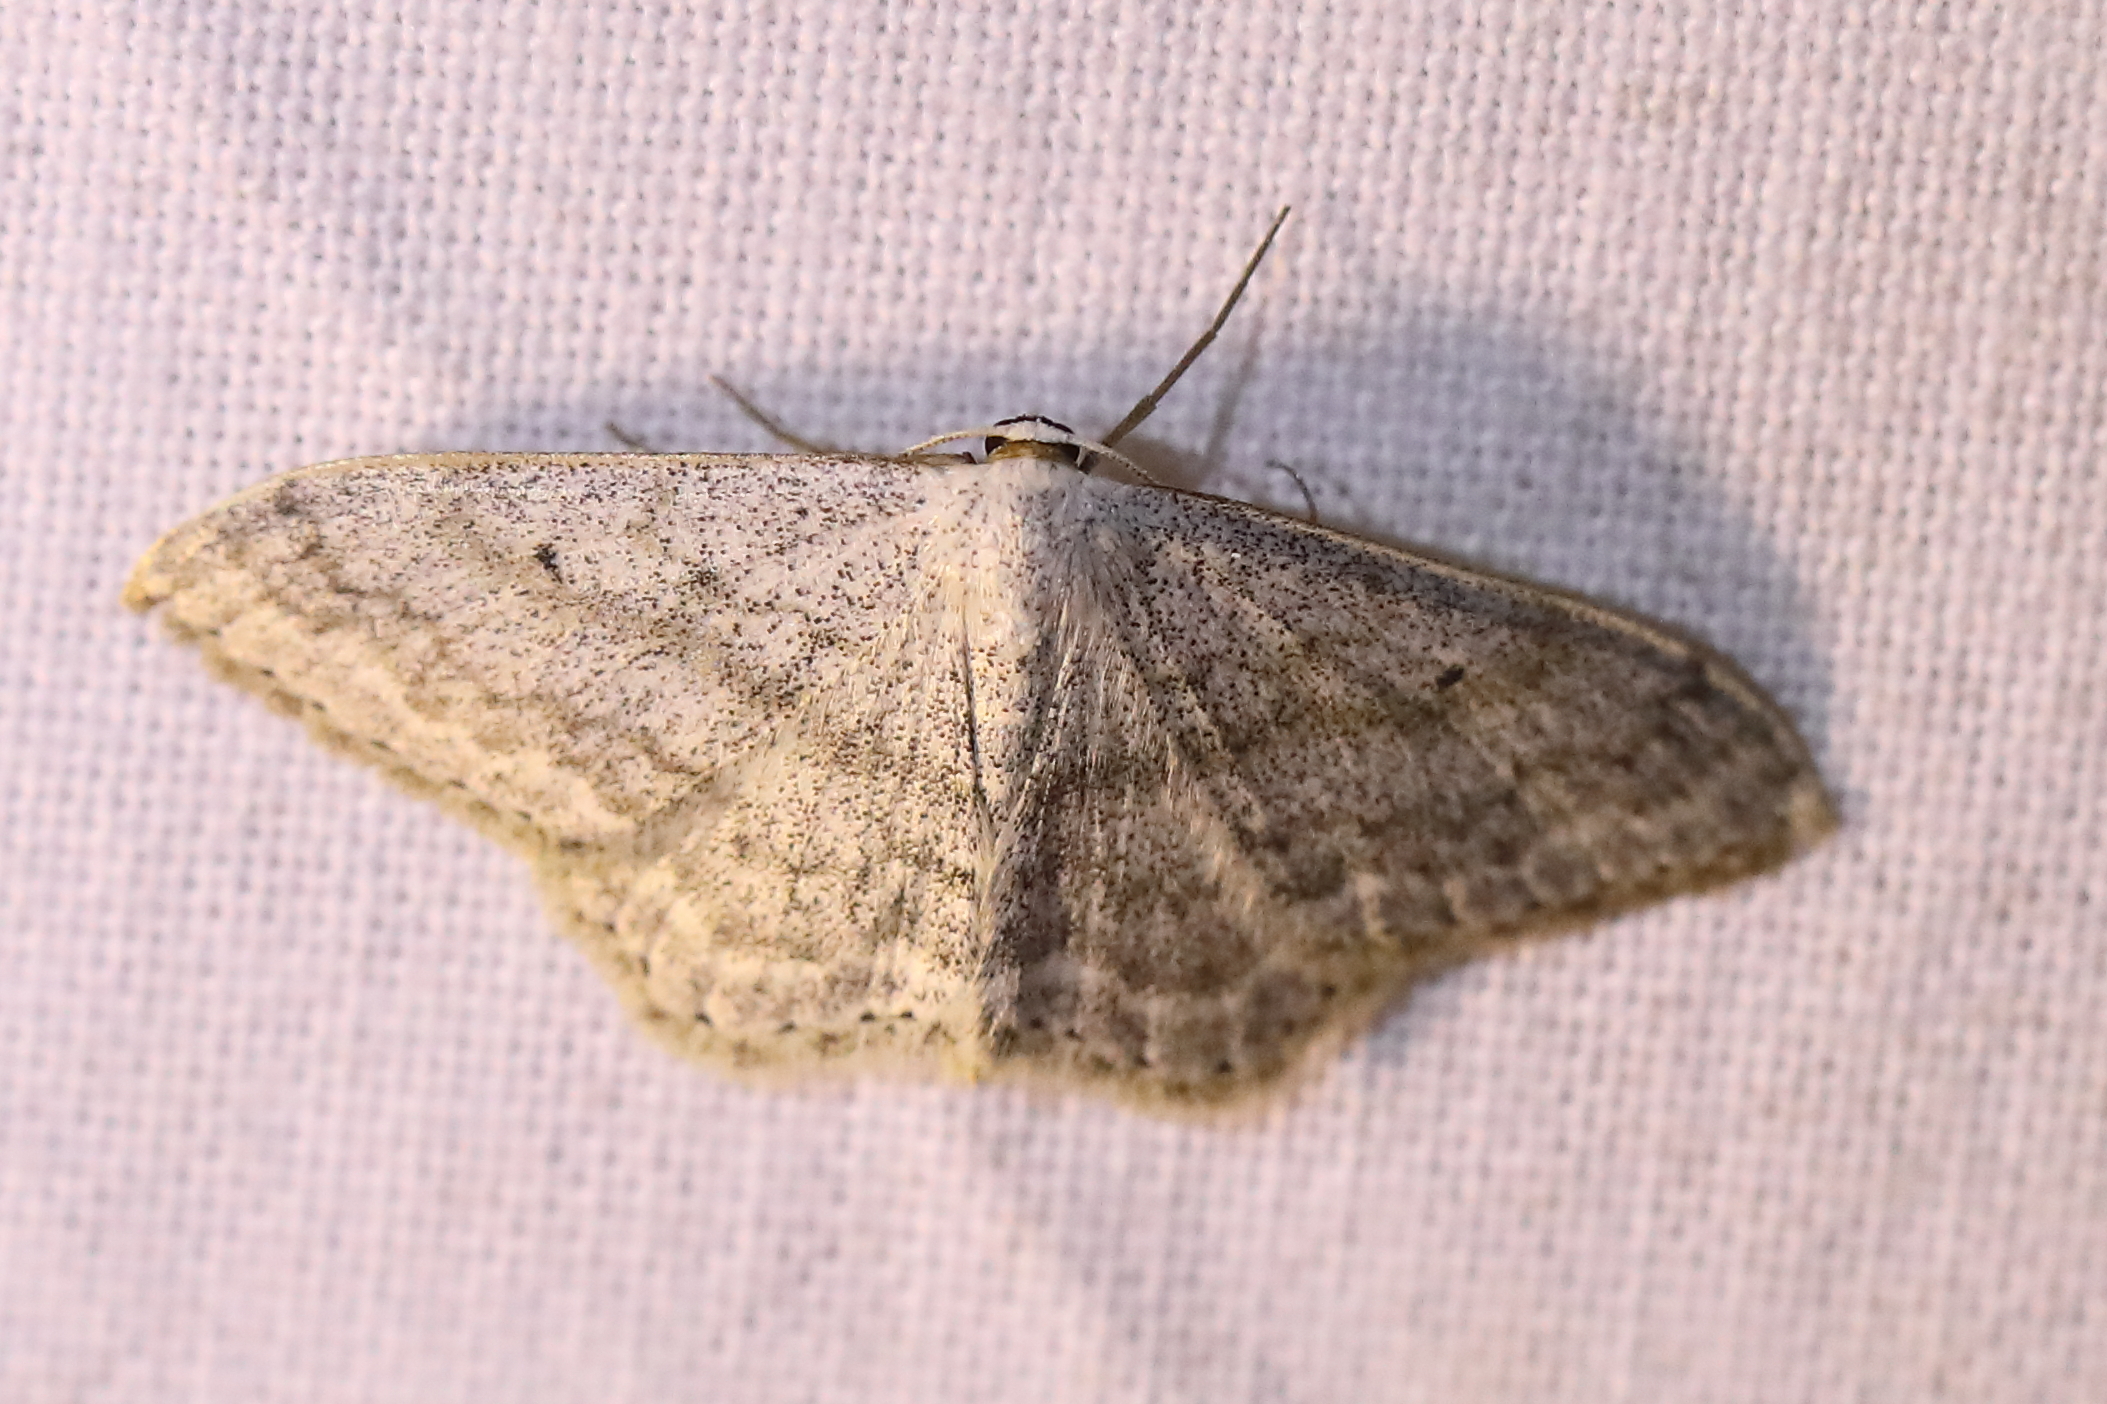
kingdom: Animalia
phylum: Arthropoda
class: Insecta
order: Lepidoptera
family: Geometridae
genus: Scopula
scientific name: Scopula incanata
